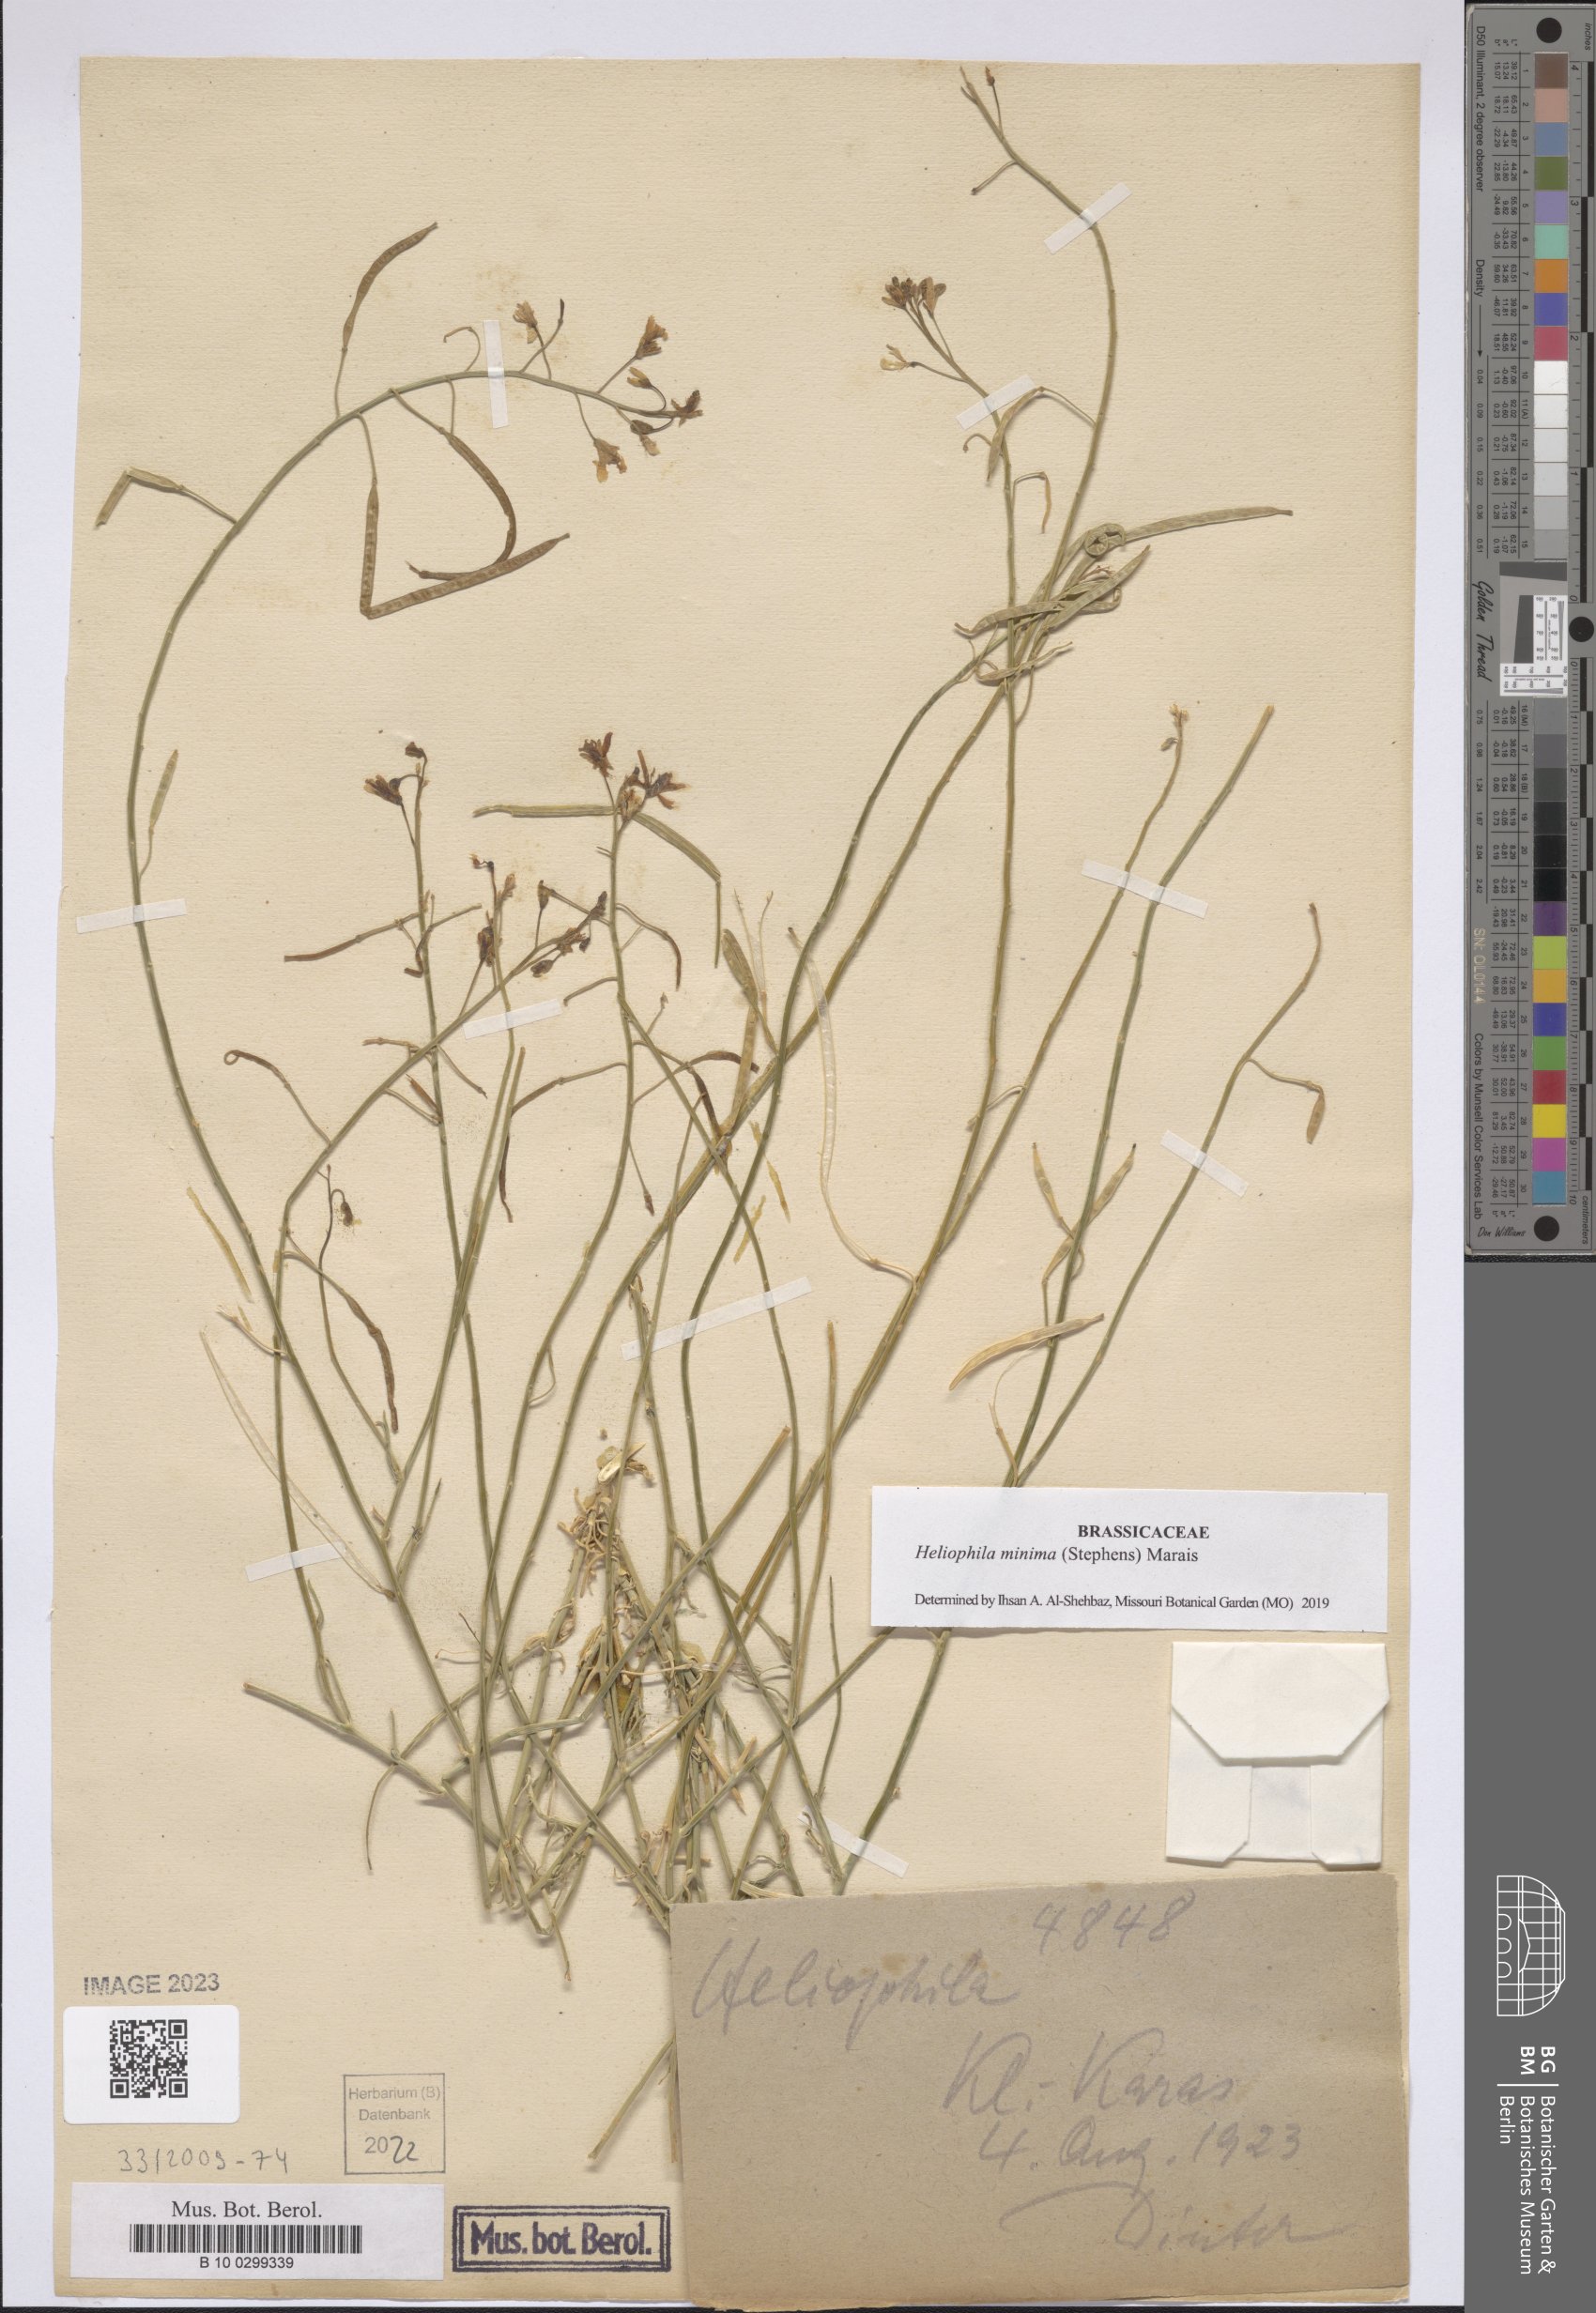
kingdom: Plantae
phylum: Tracheophyta
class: Magnoliopsida
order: Brassicales
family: Brassicaceae
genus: Heliophila
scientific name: Heliophila minima
